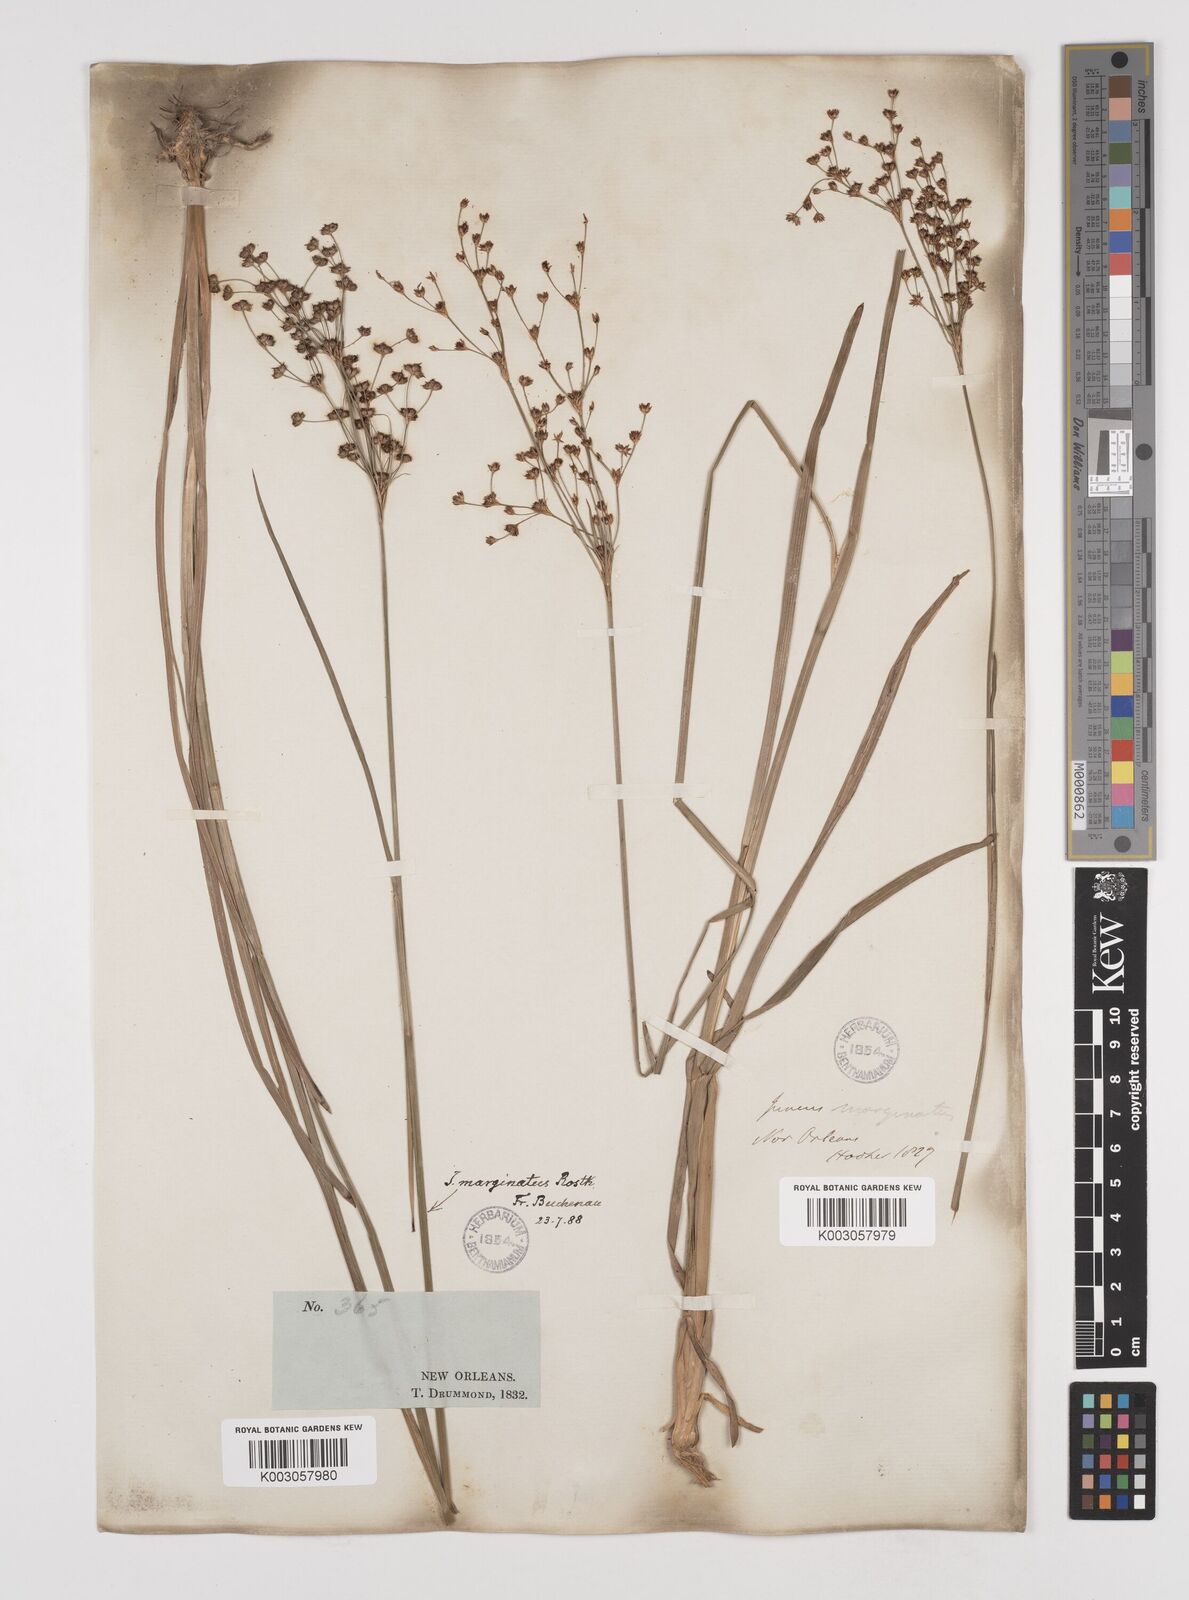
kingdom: Plantae
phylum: Tracheophyta
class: Liliopsida
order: Poales
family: Juncaceae
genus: Juncus
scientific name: Juncus marginatus
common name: Grass-leaf rush
